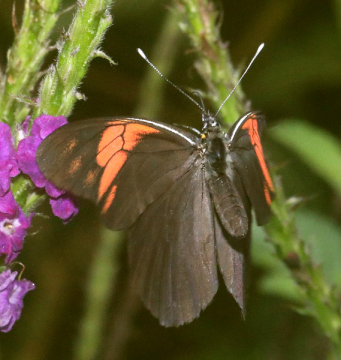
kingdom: Animalia
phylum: Arthropoda
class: Insecta
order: Lepidoptera
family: Pieridae
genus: Pereute
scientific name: Pereute charops
